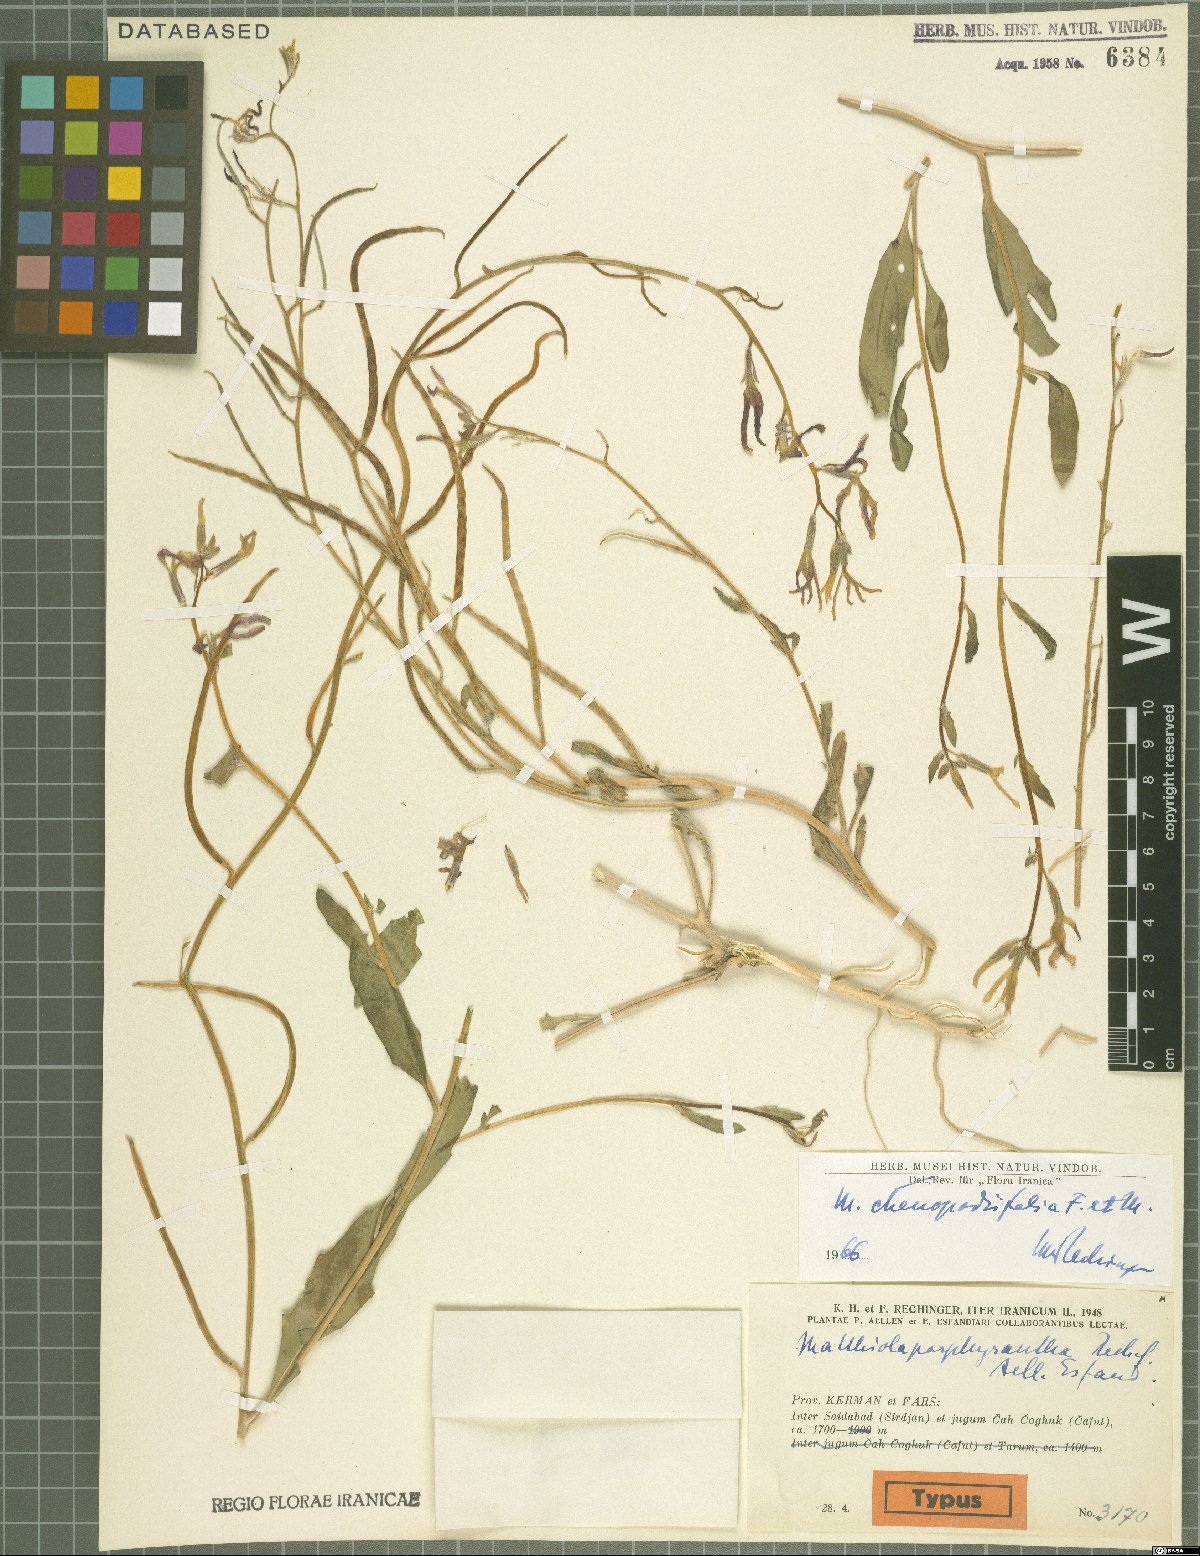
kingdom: Plantae
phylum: Tracheophyta
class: Magnoliopsida
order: Brassicales
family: Brassicaceae
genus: Matthiola
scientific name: Matthiola chenopodiifolia
